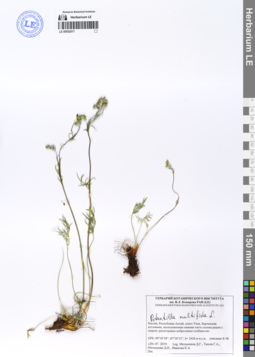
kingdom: Plantae
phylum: Tracheophyta
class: Magnoliopsida
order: Rosales
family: Rosaceae
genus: Potentilla
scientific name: Potentilla multifida
